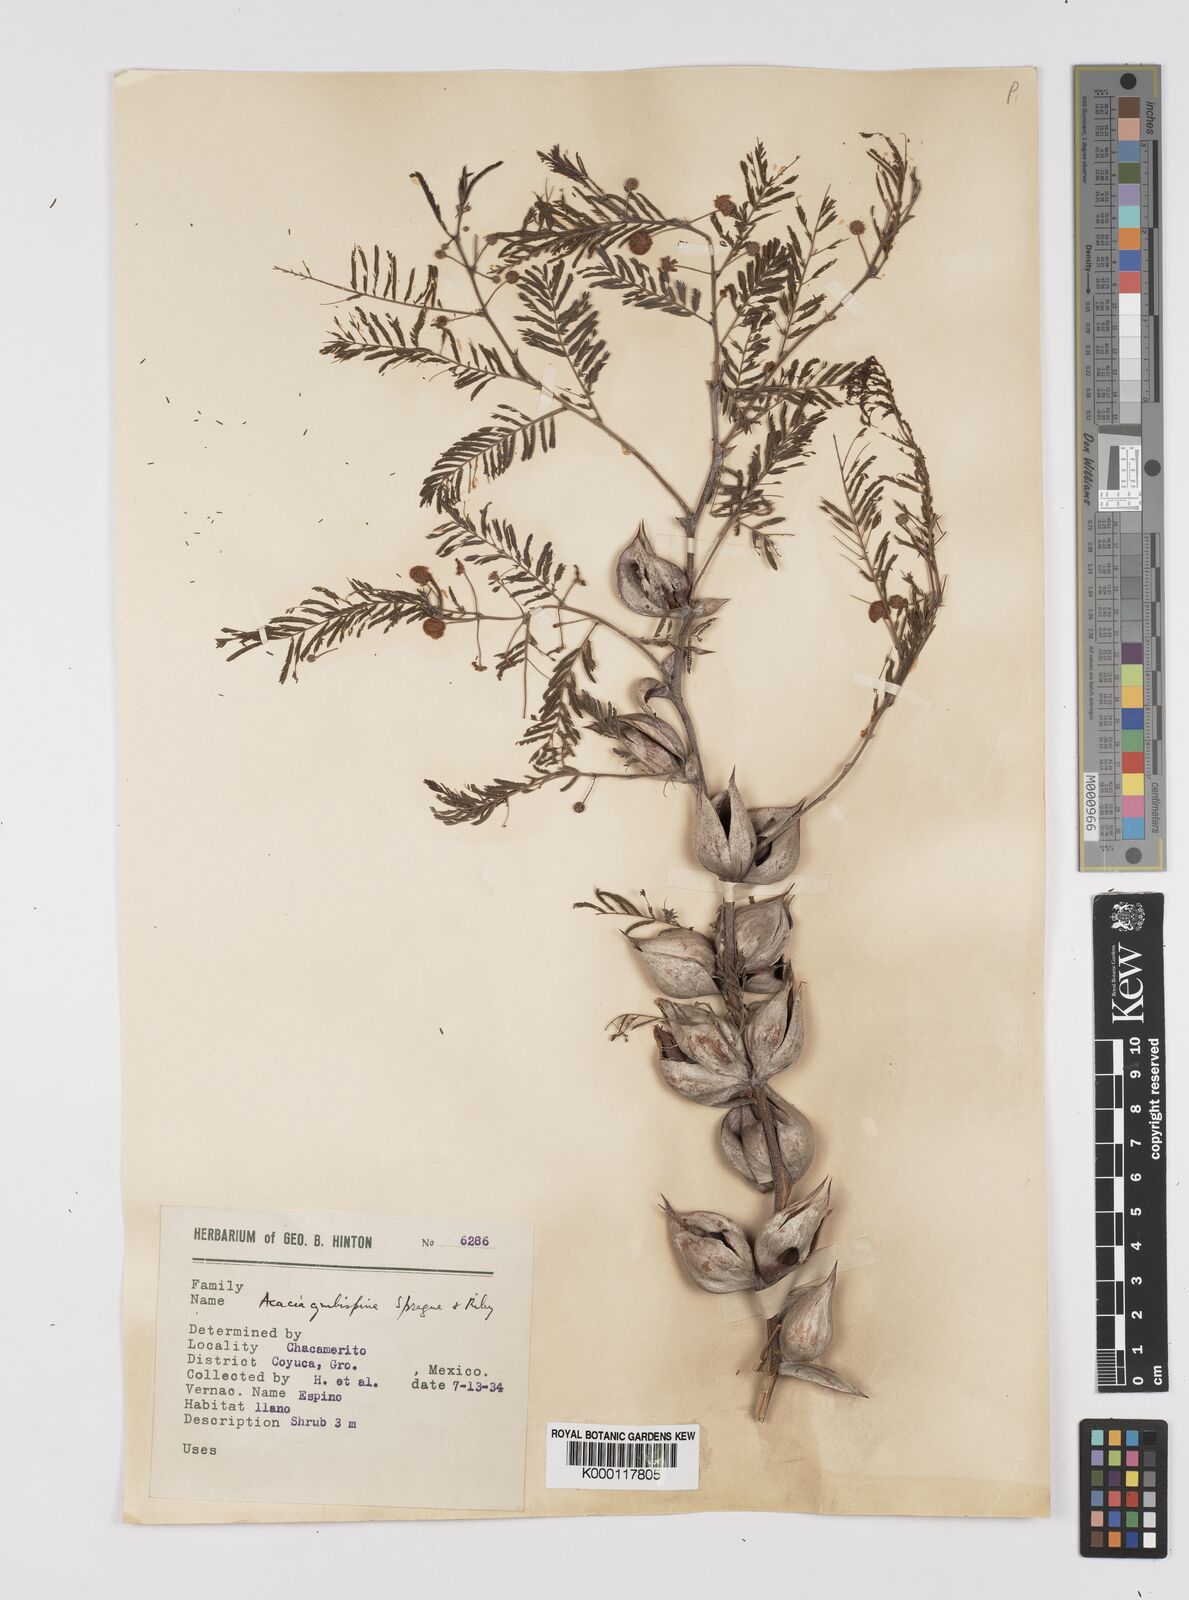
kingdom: Plantae
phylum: Tracheophyta
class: Magnoliopsida
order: Fabales
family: Fabaceae
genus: Vachellia
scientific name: Vachellia campeachiana
